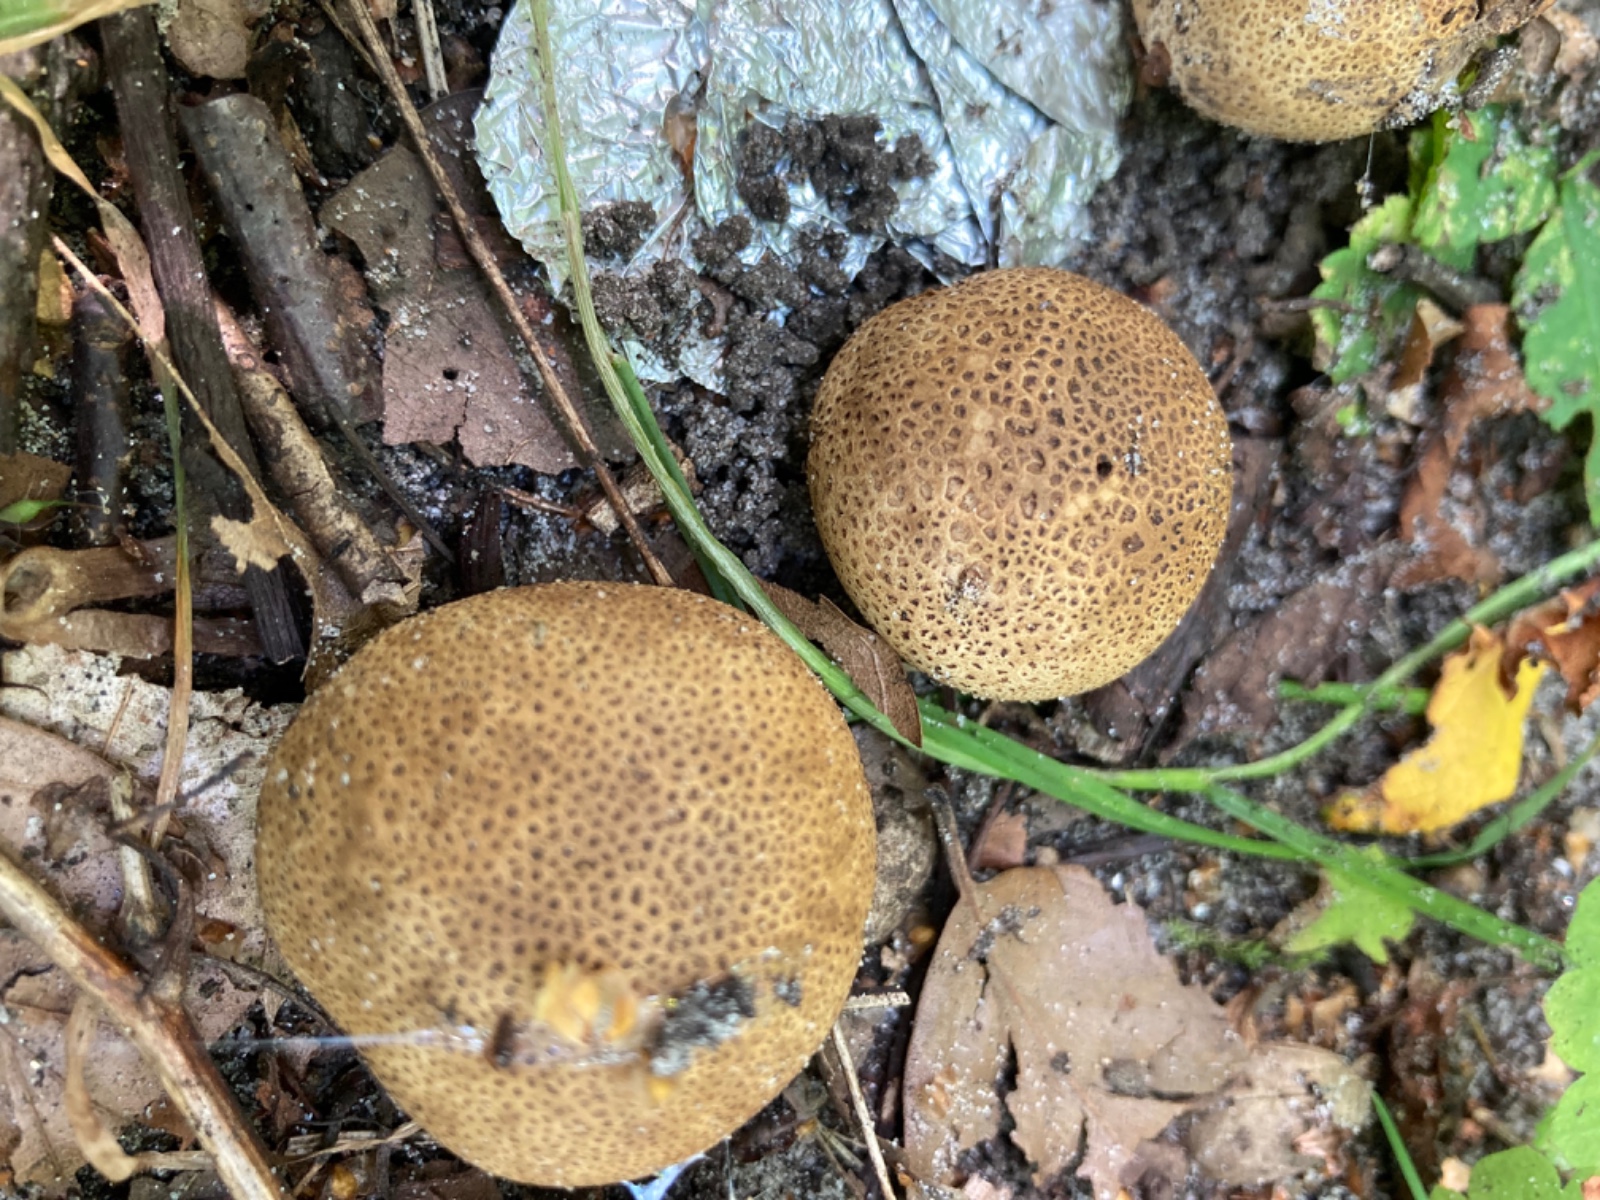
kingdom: Fungi
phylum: Basidiomycota
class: Agaricomycetes
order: Boletales
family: Sclerodermataceae
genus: Scleroderma
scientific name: Scleroderma areolatum
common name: plettet bruskbold
